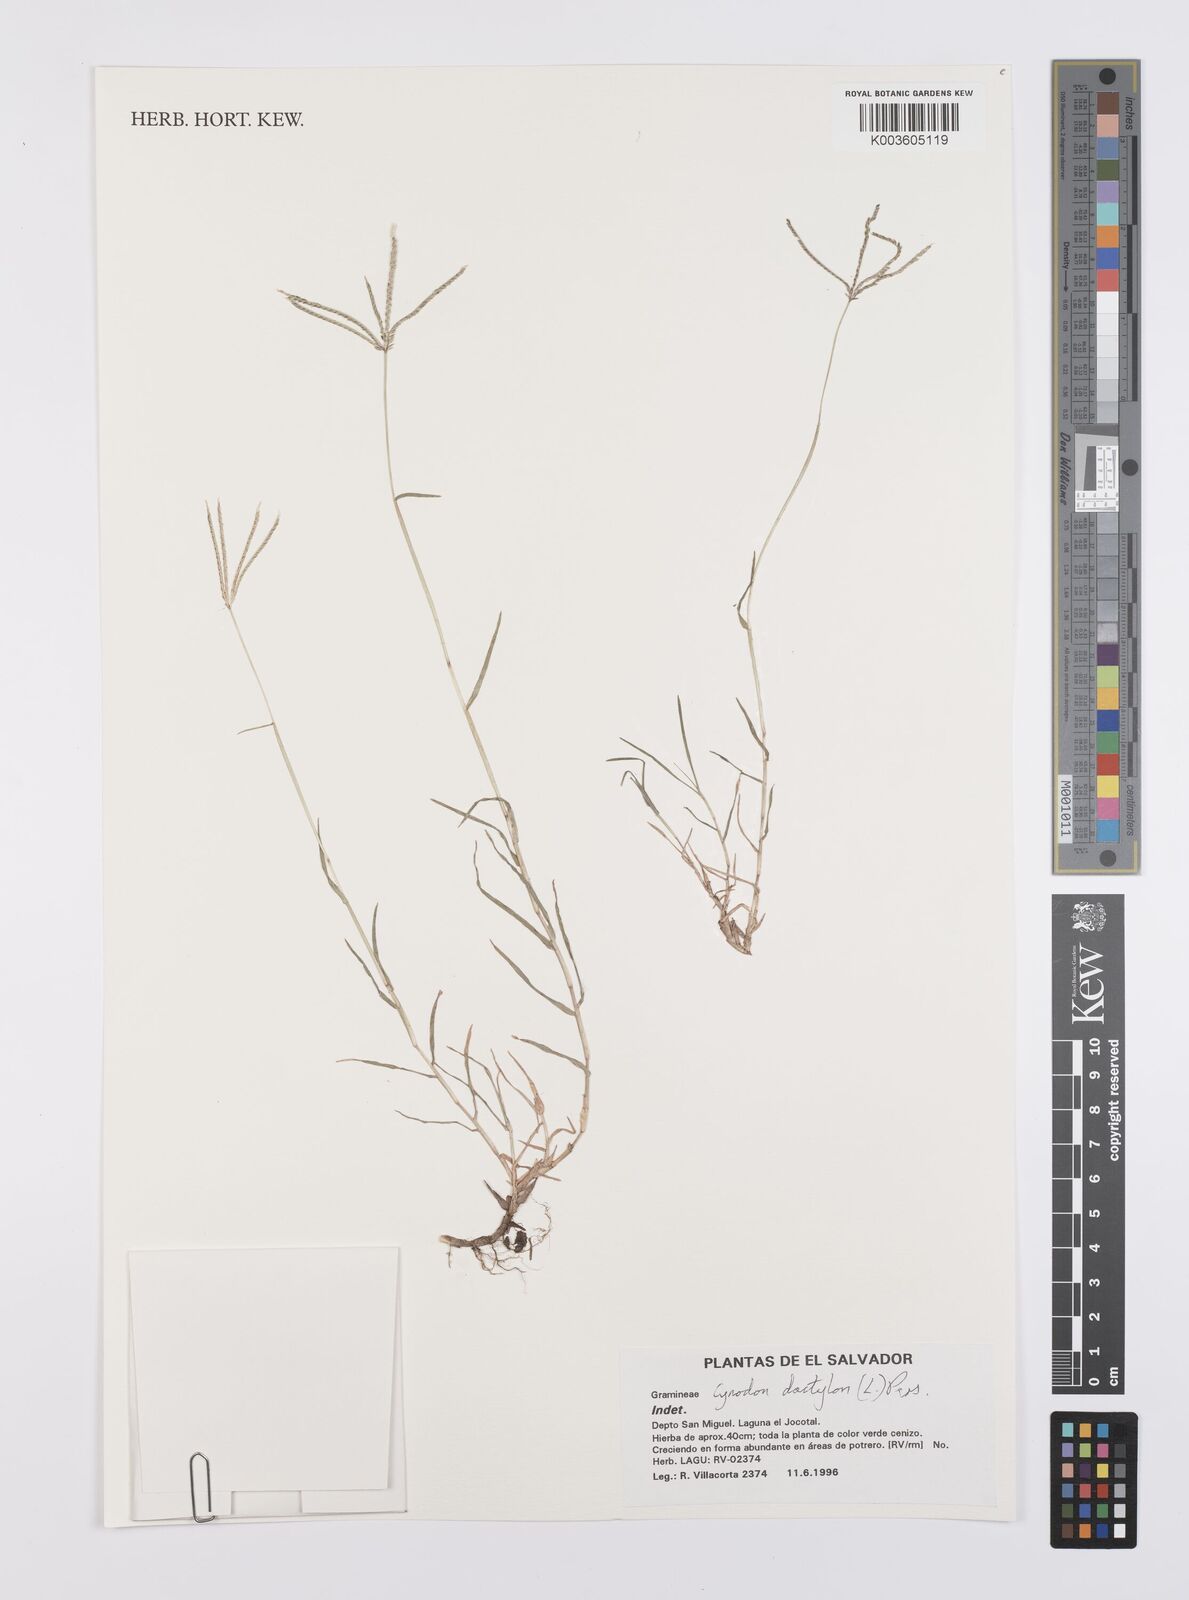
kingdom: Plantae
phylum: Tracheophyta
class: Liliopsida
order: Poales
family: Poaceae
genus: Cynodon
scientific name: Cynodon dactylon
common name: Bermuda grass
